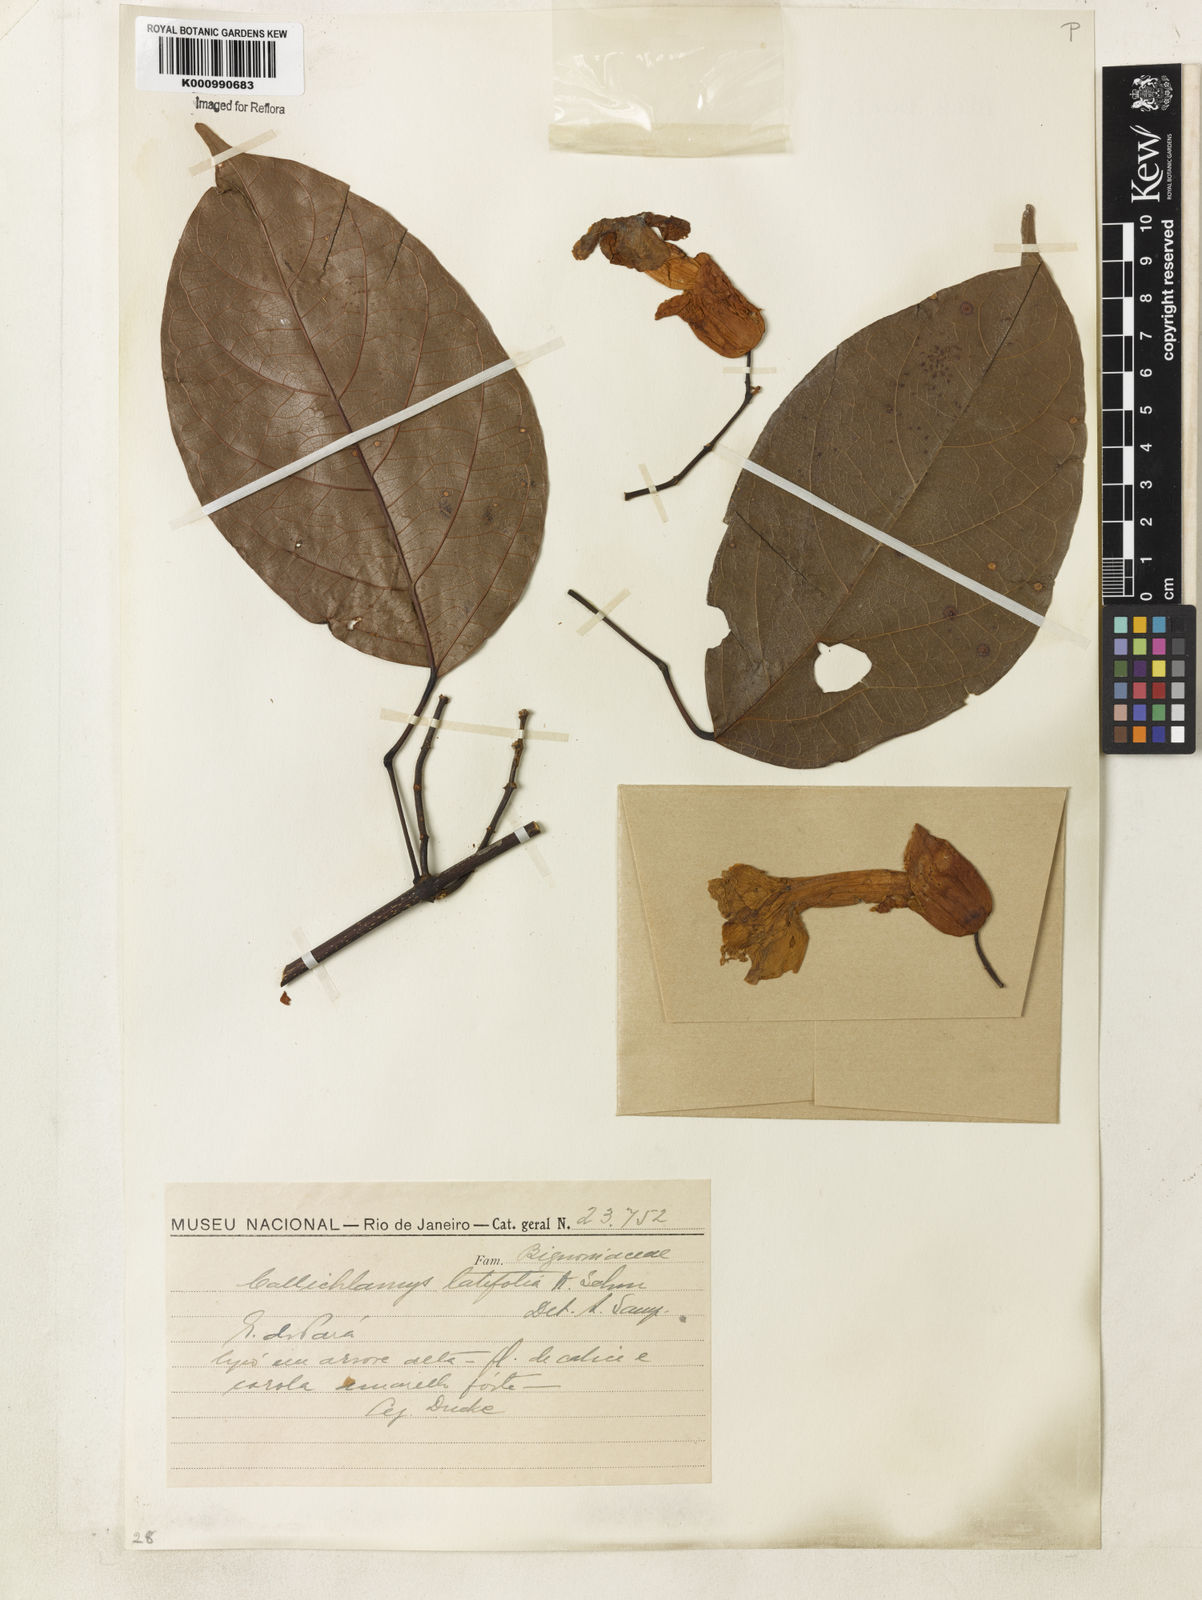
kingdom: Plantae
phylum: Tracheophyta
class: Magnoliopsida
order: Lamiales
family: Bignoniaceae
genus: Callichlamys
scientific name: Callichlamys latifolia
